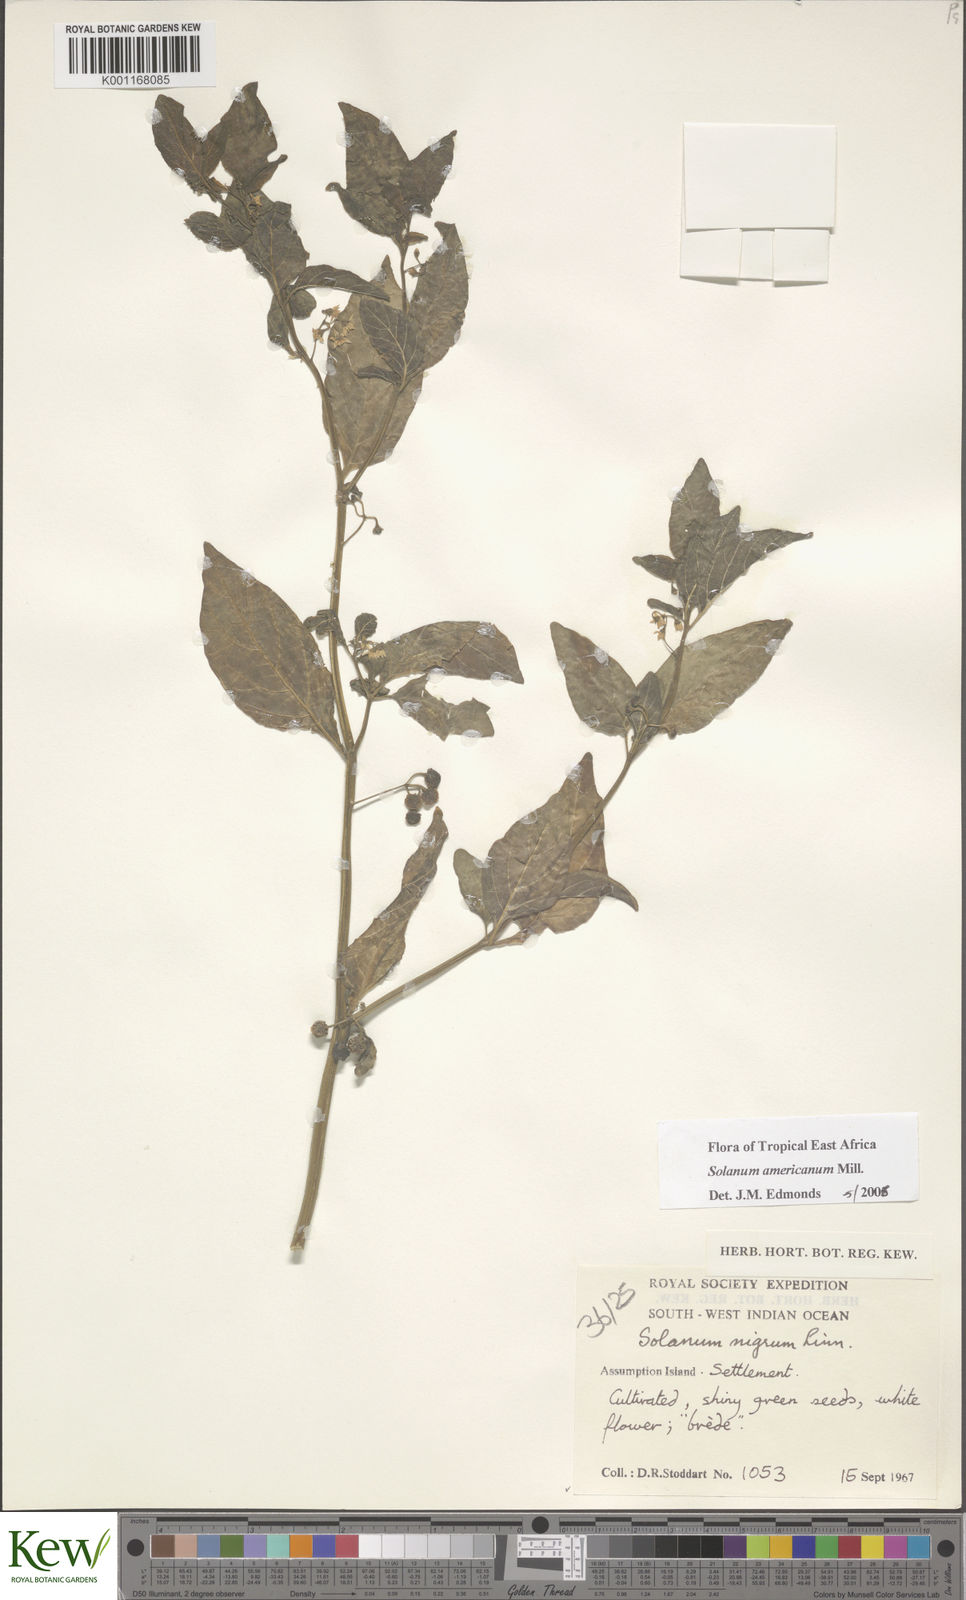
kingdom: Plantae
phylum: Tracheophyta
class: Magnoliopsida
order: Solanales
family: Solanaceae
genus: Solanum
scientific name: Solanum americanum
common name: American black nightshade
